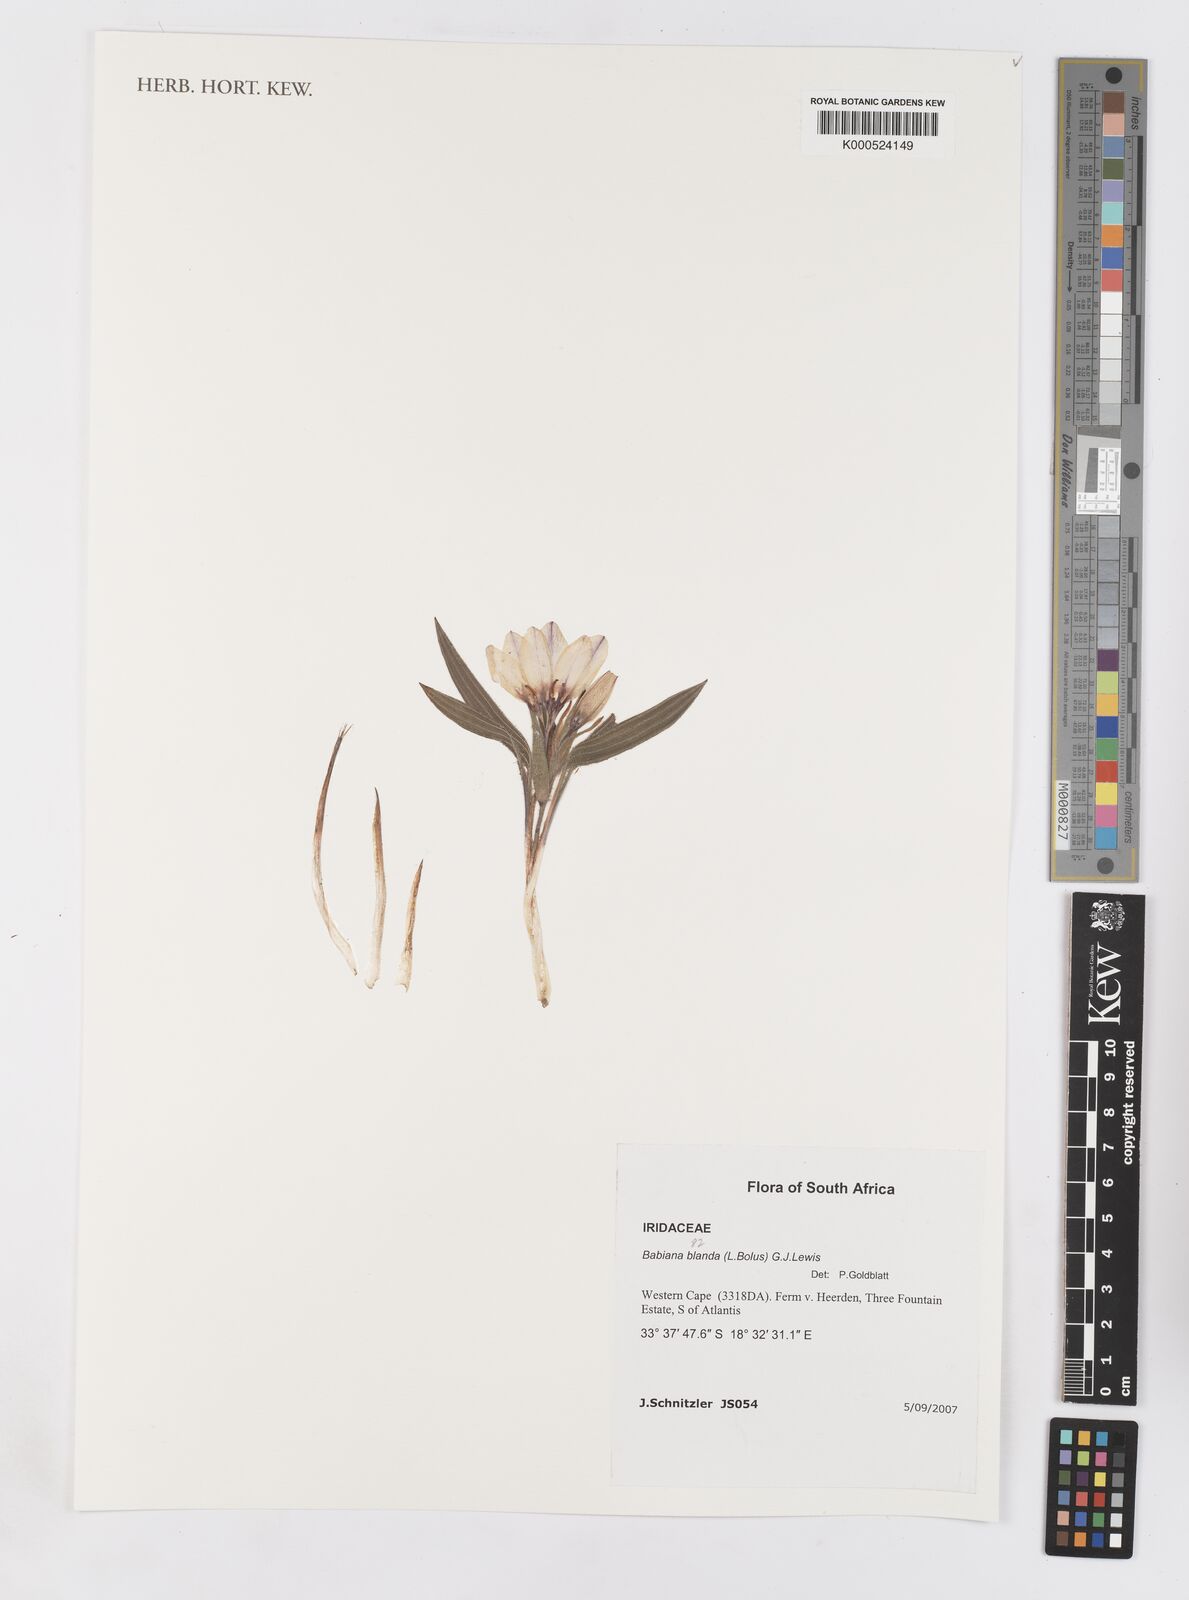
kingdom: Plantae
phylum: Tracheophyta
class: Liliopsida
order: Asparagales
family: Iridaceae
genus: Babiana
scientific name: Babiana blanda
